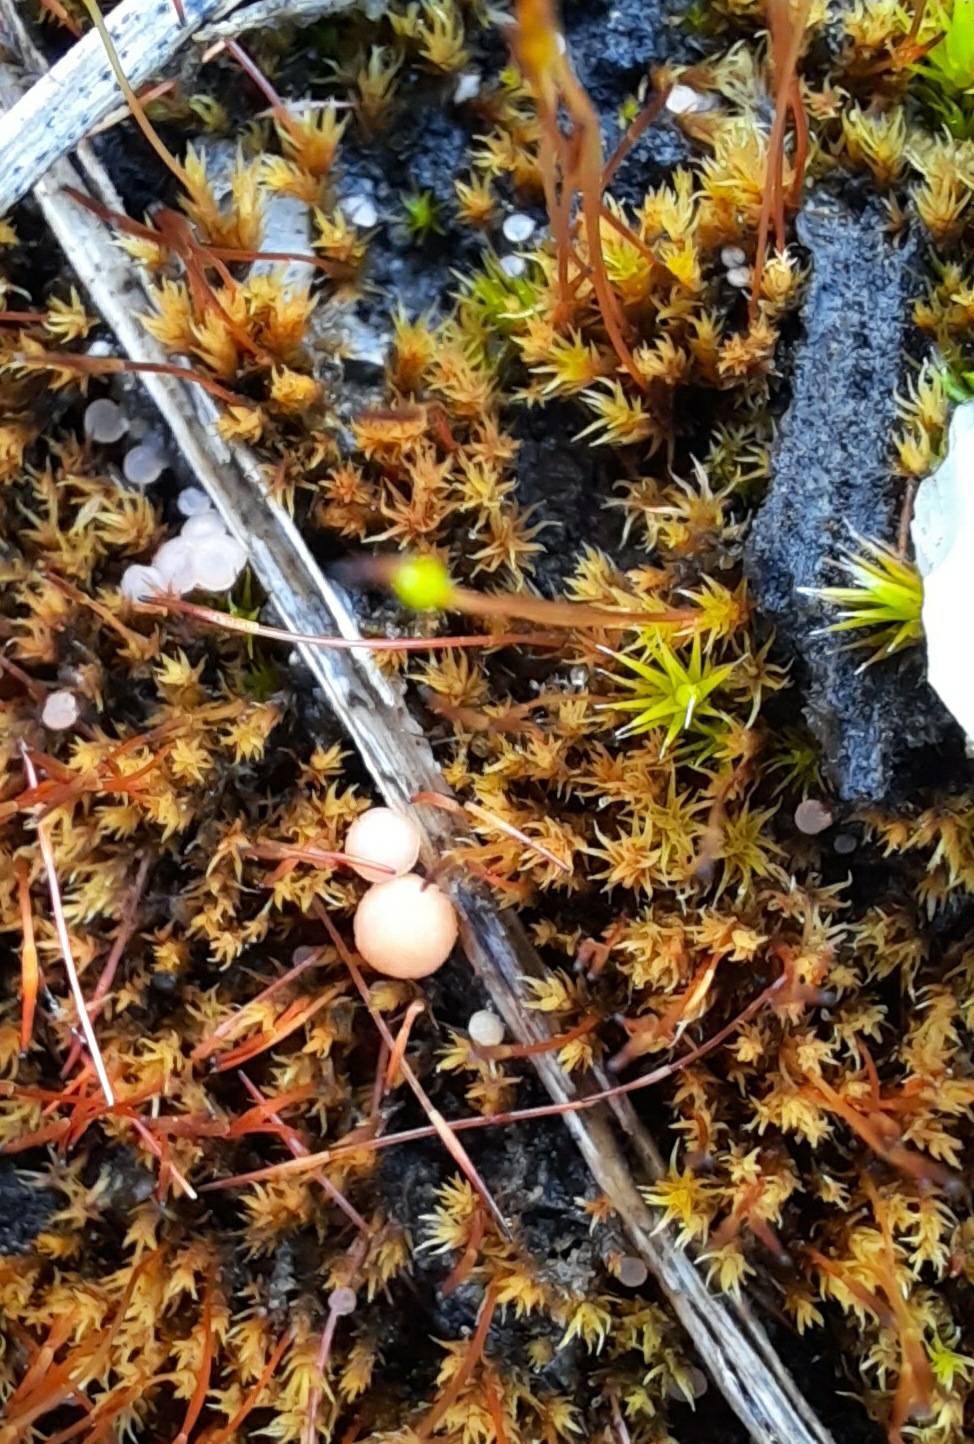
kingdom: Fungi
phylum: Ascomycota
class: Leotiomycetes
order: Helotiales
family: Hyaloscyphaceae
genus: Roseodiscus
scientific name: Roseodiscus formosus
